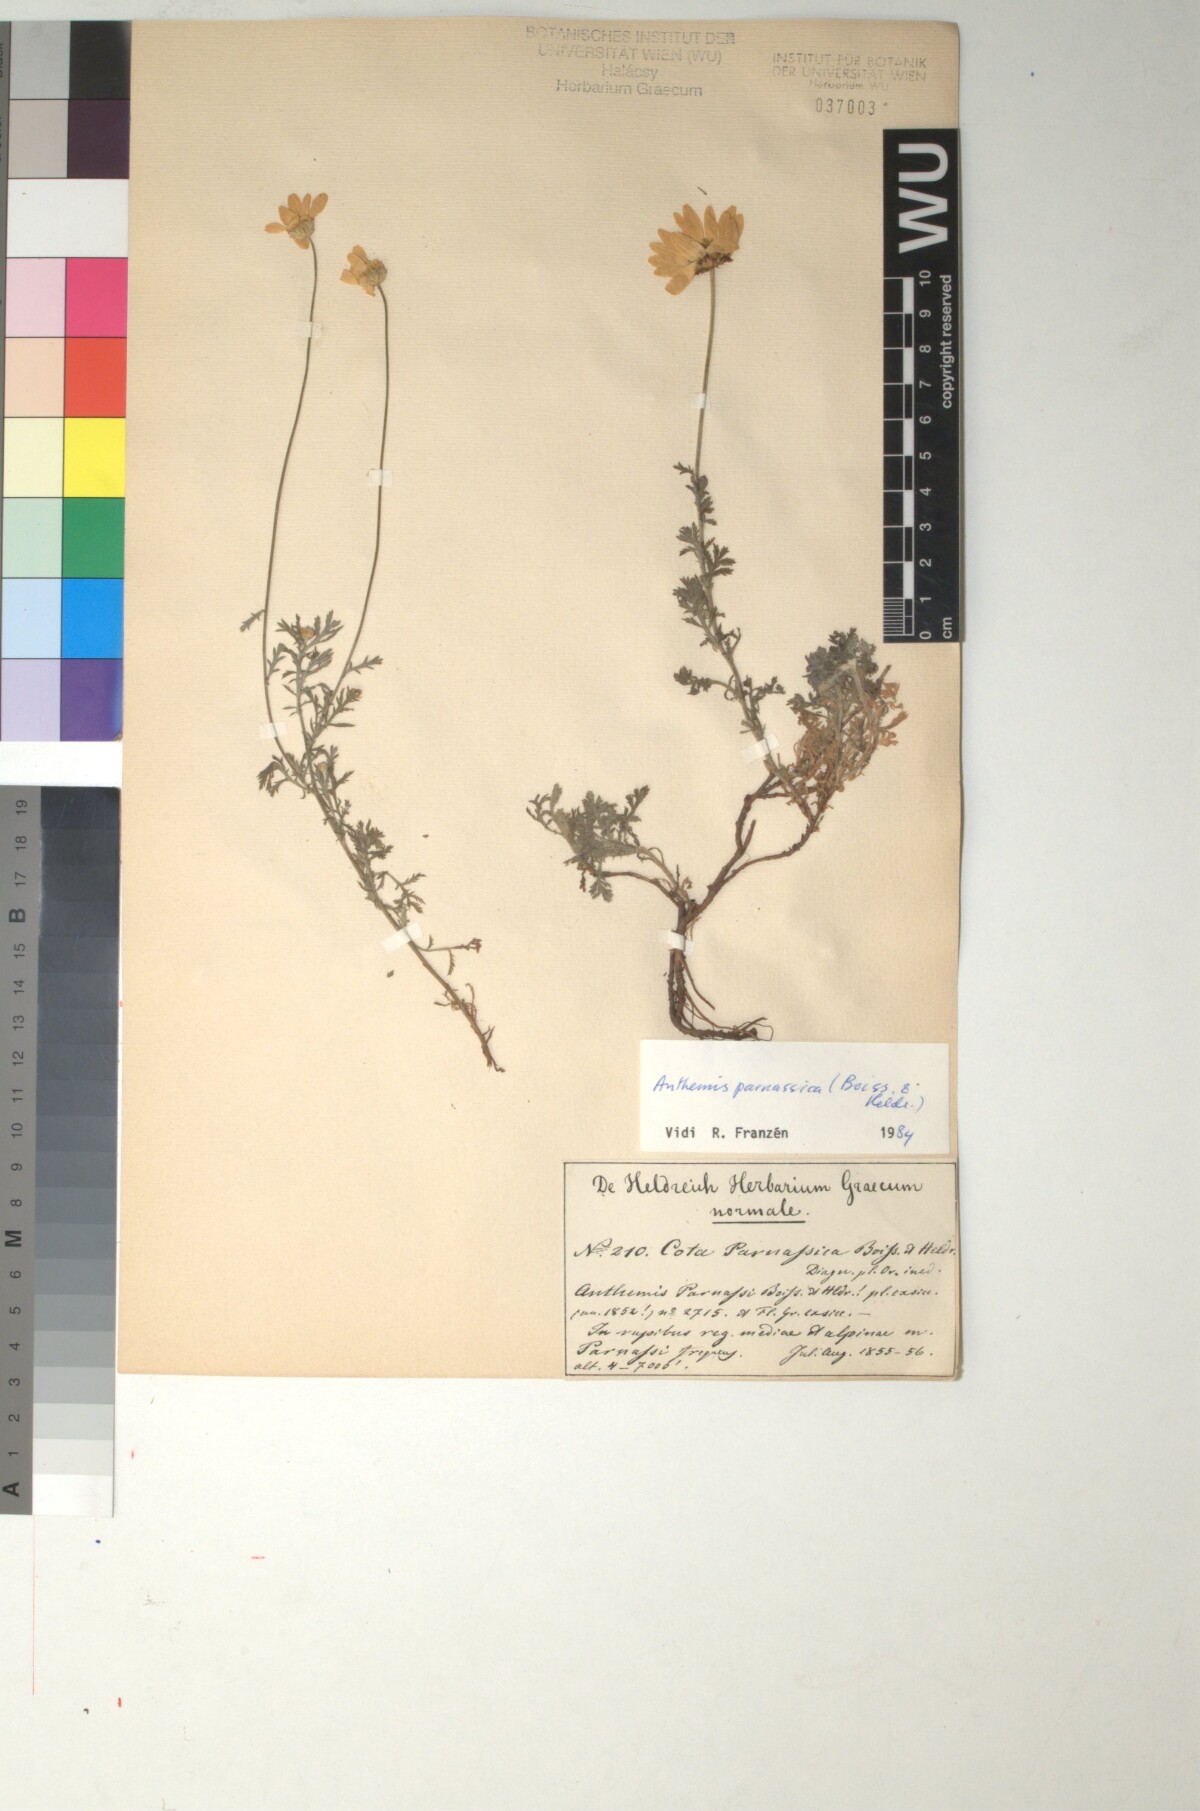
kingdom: Plantae
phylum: Tracheophyta
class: Magnoliopsida
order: Asterales
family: Asteraceae
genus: Cota
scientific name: Cota tinctoria
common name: Golden chamomile
